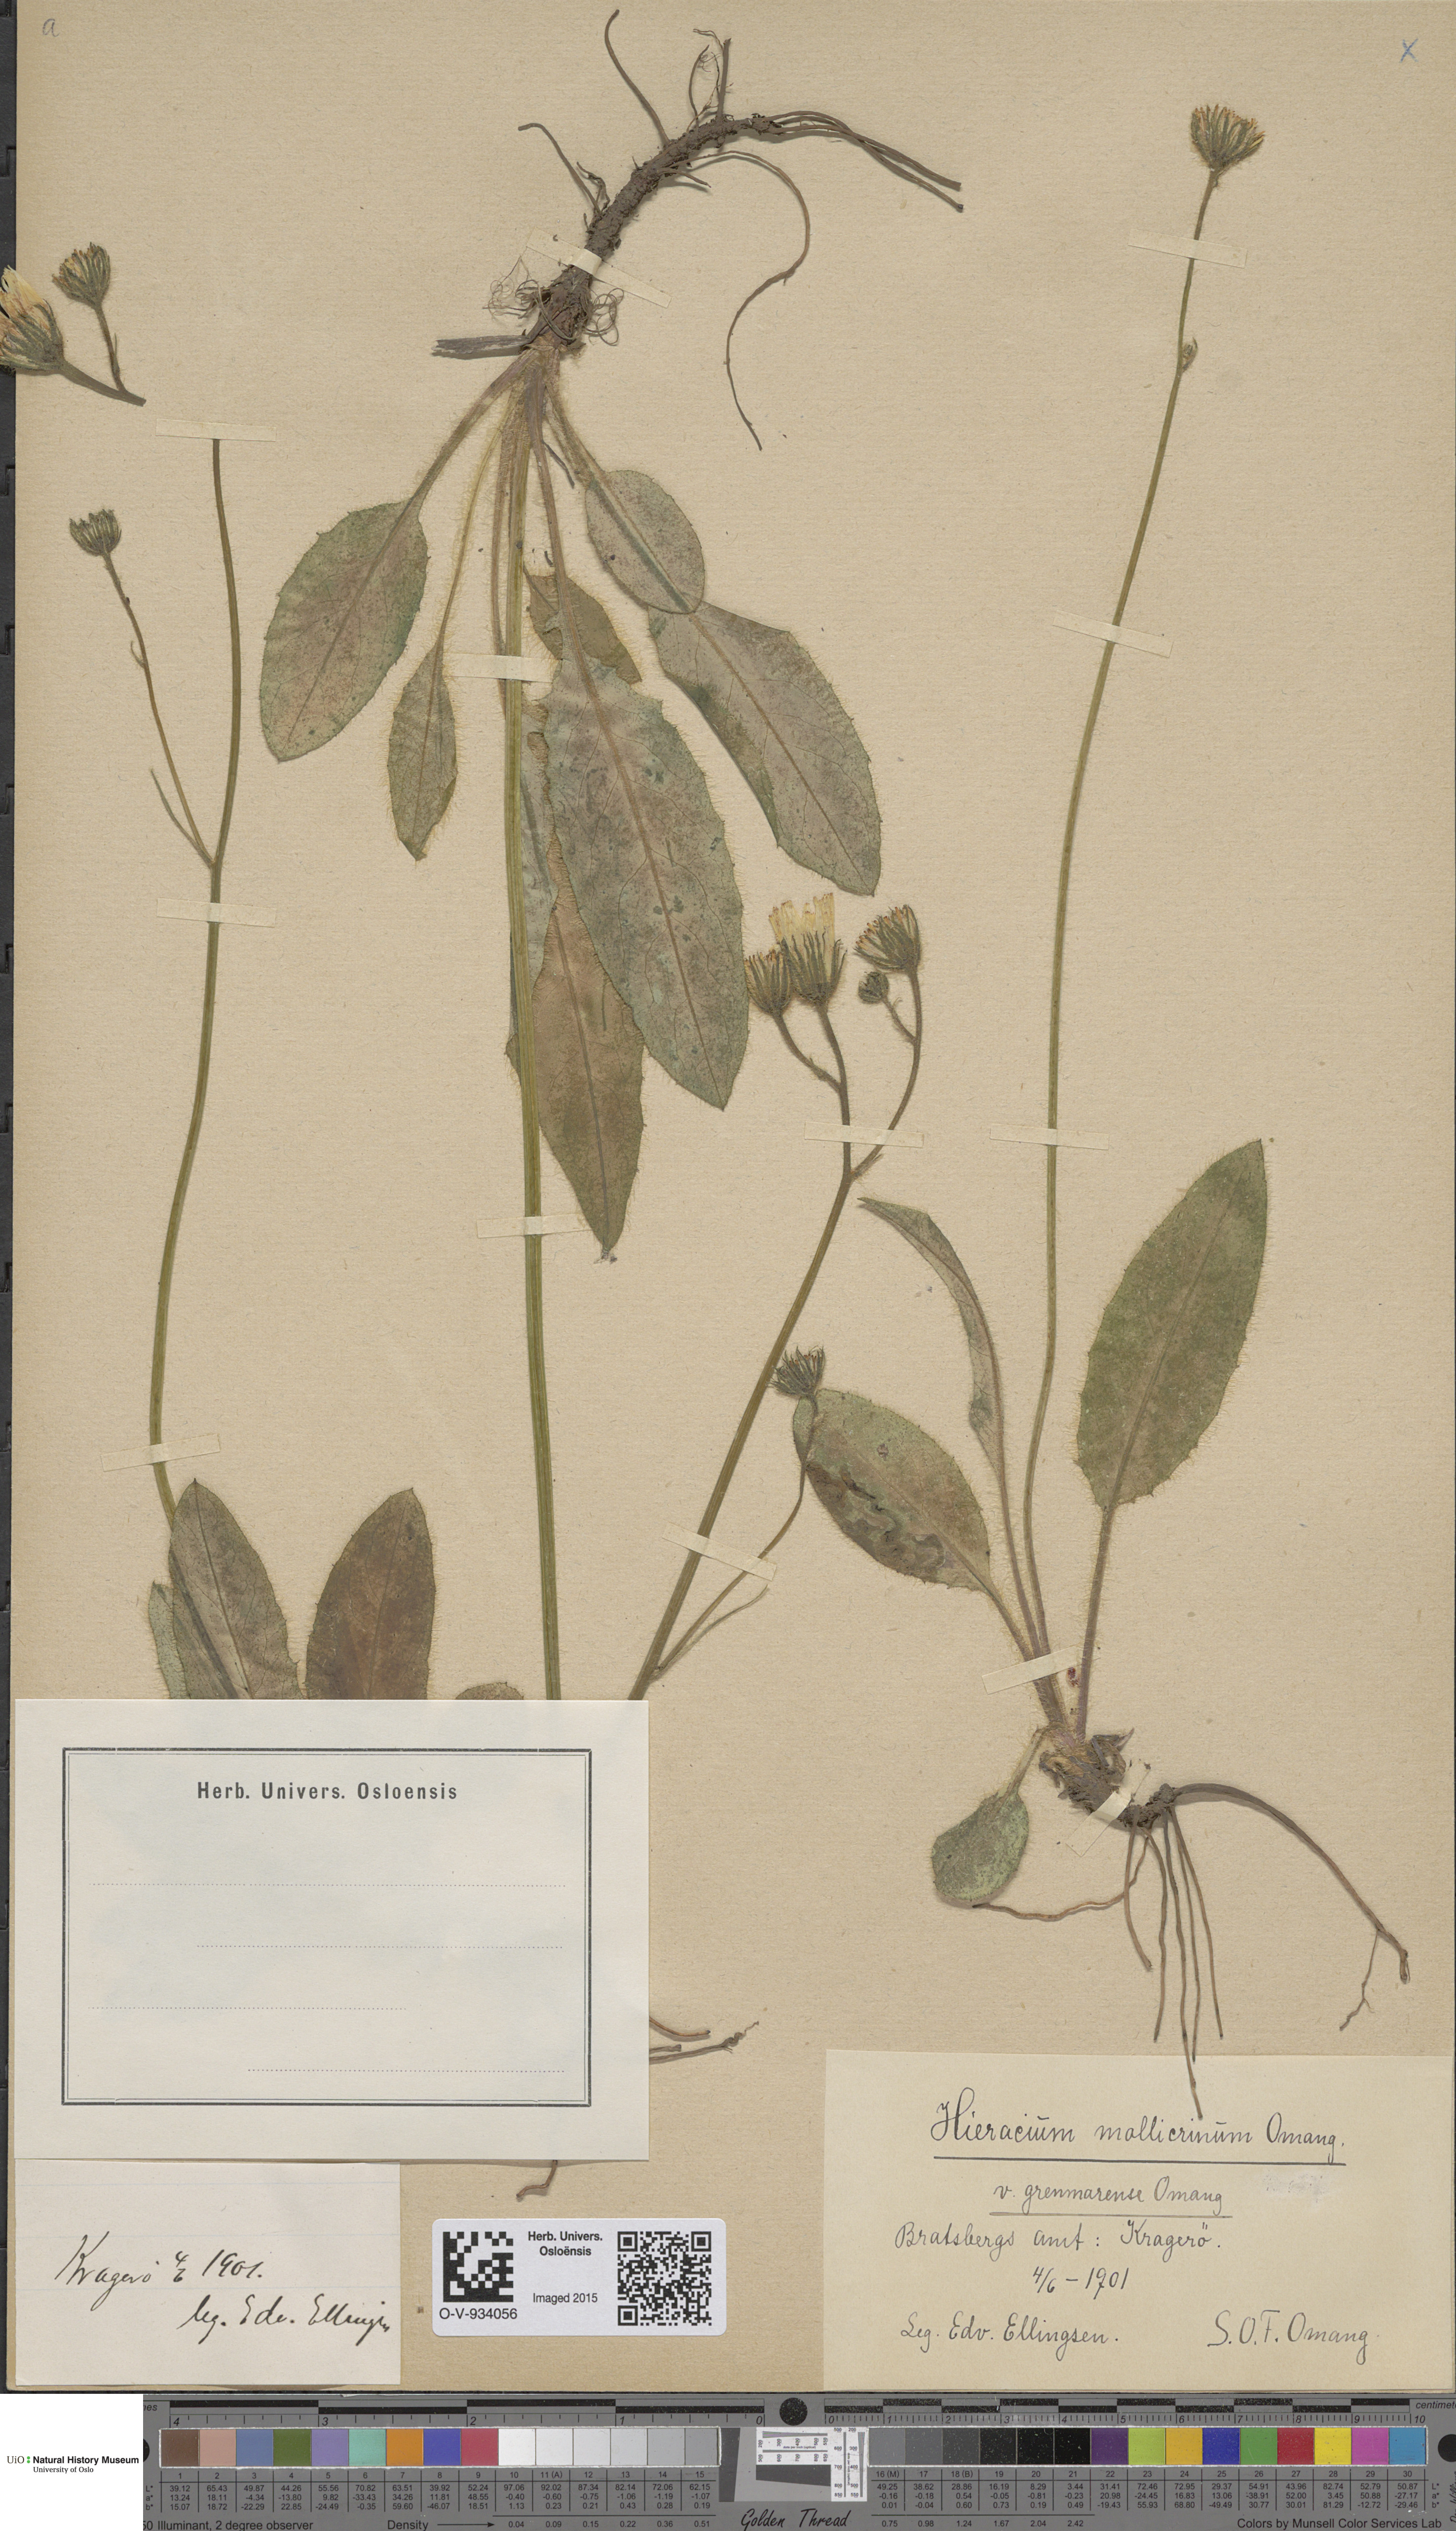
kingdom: Plantae
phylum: Tracheophyta
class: Magnoliopsida
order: Asterales
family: Asteraceae
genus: Hieracium
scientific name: Hieracium schmidtii
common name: Schmidt's hawkweed
